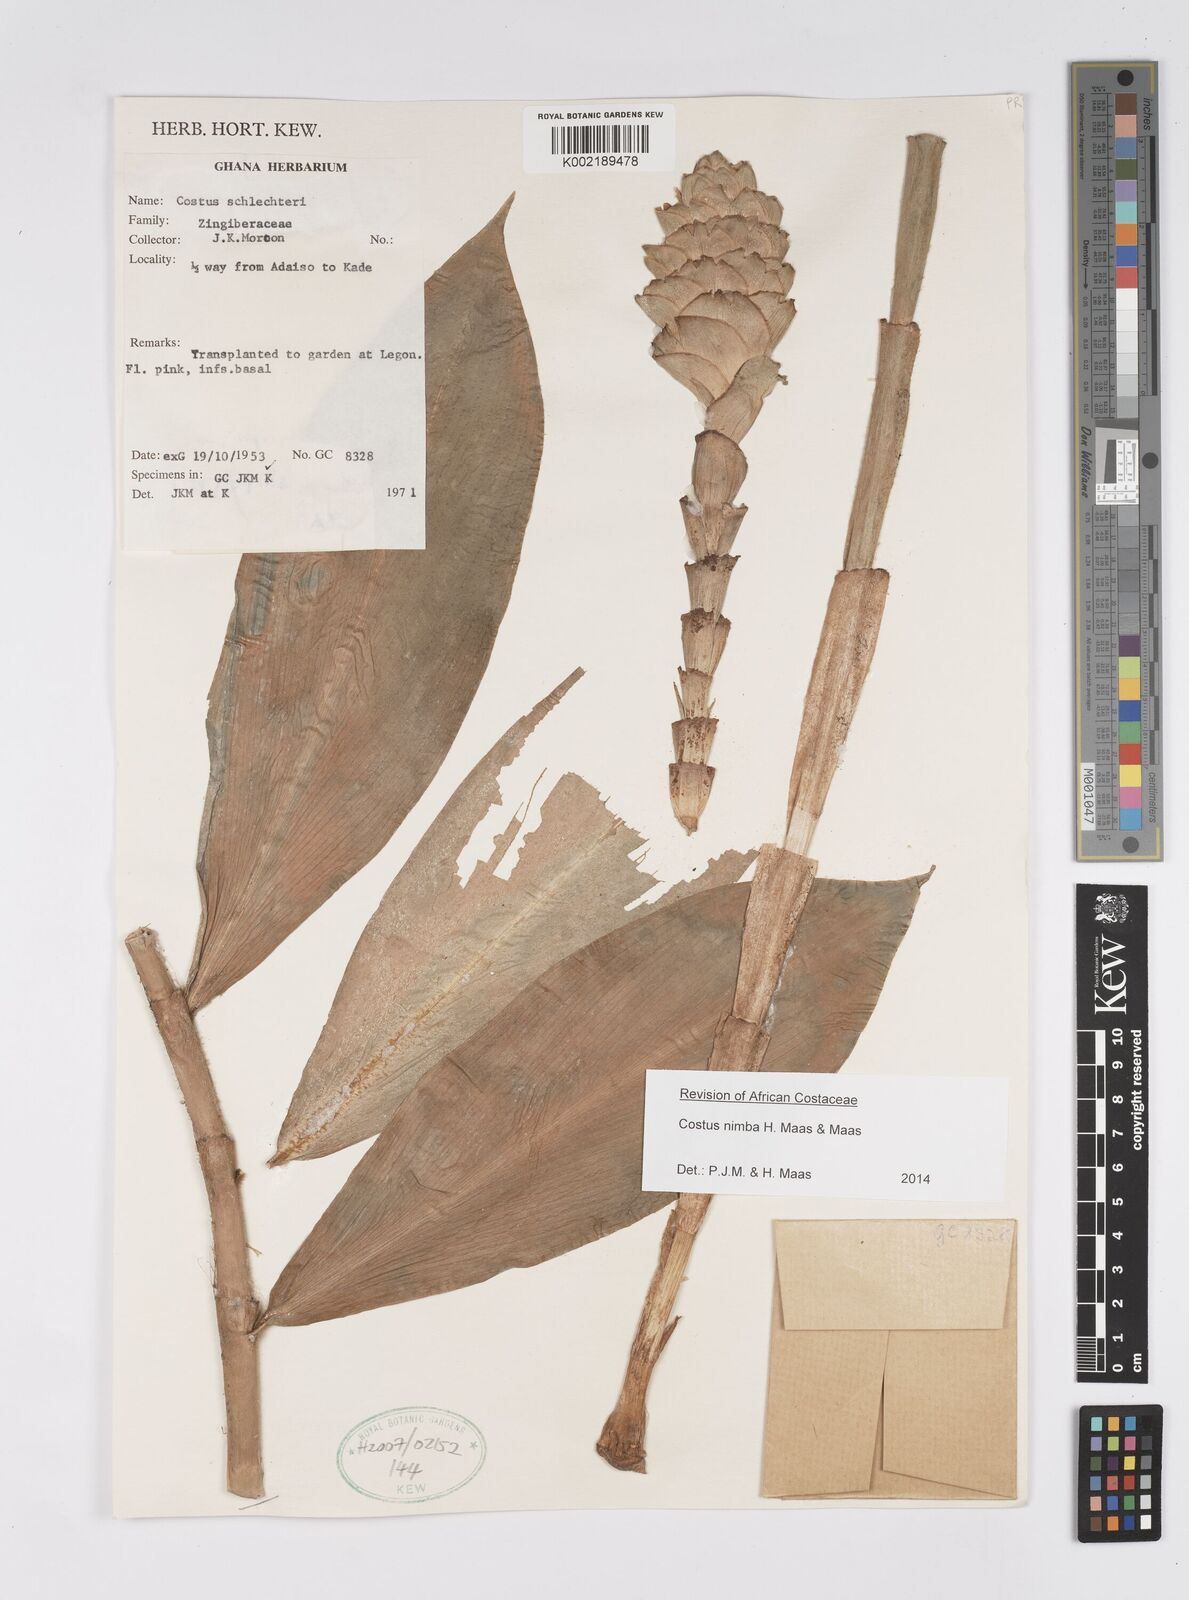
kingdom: Plantae
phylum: Tracheophyta
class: Liliopsida
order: Zingiberales
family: Costaceae
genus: Costus
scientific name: Costus nimba
